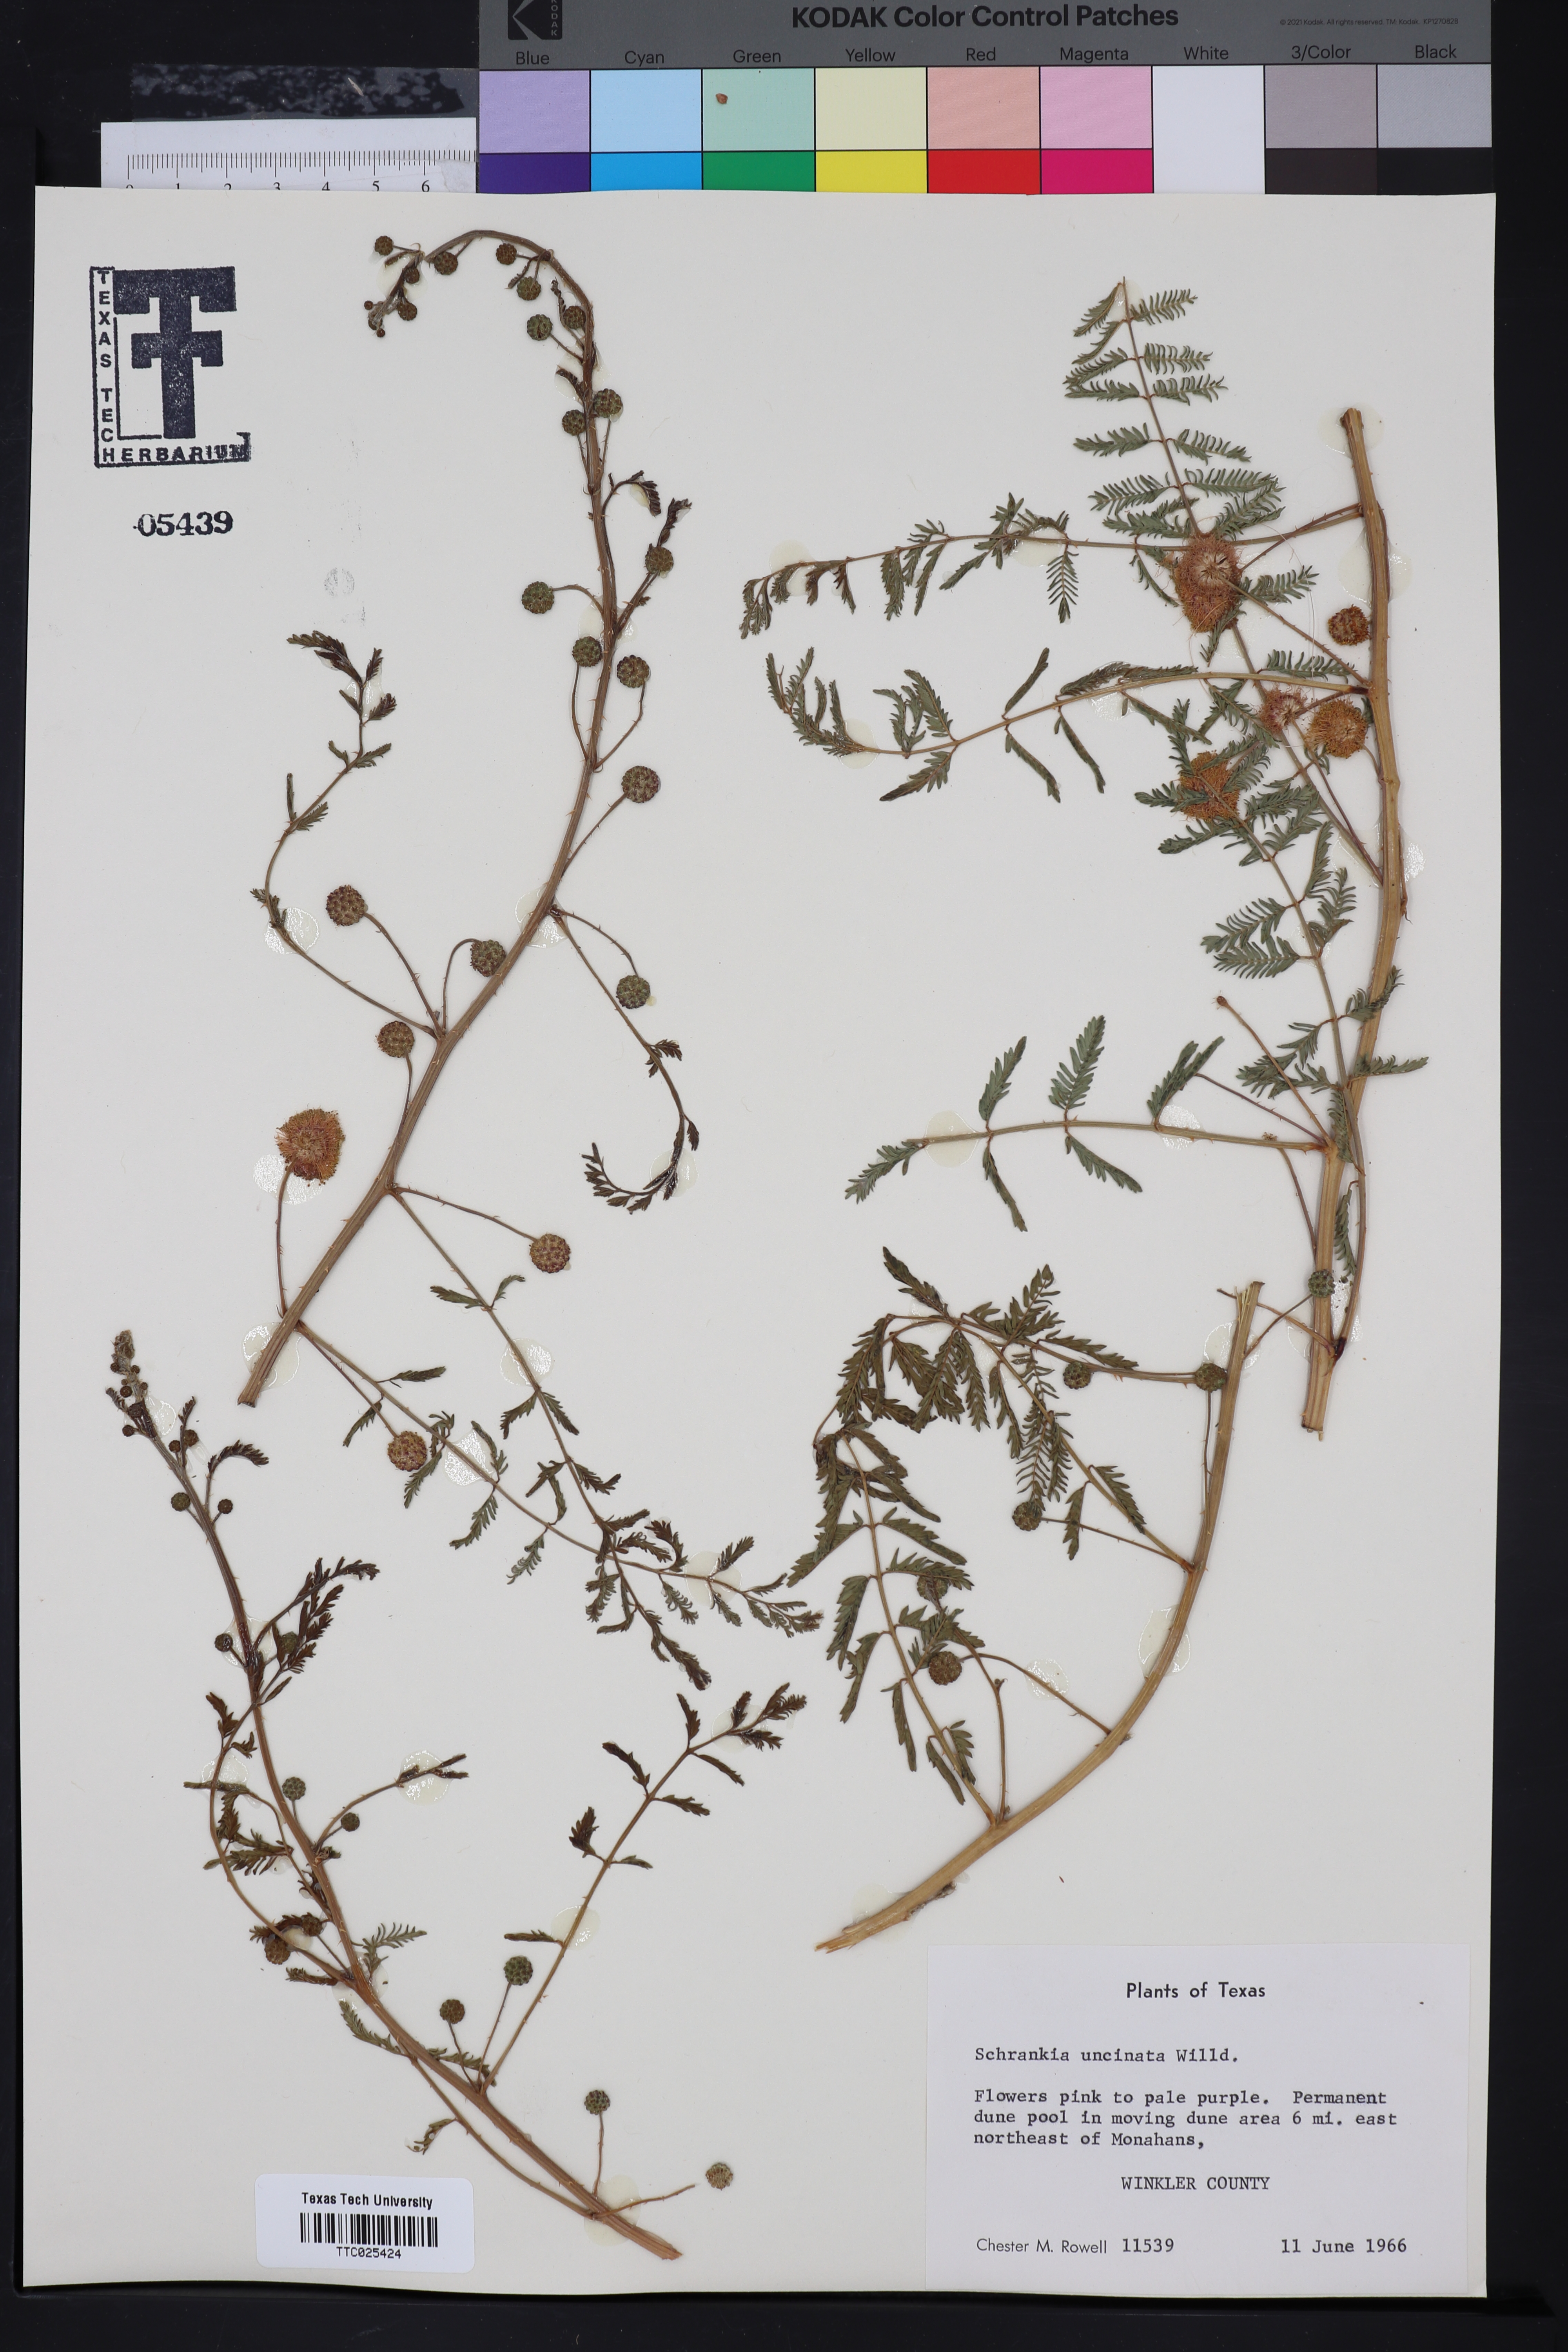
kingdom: Plantae
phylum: Tracheophyta
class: Magnoliopsida
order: Fabales
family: Fabaceae
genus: Mimosa
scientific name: Mimosa quadrivalvis
